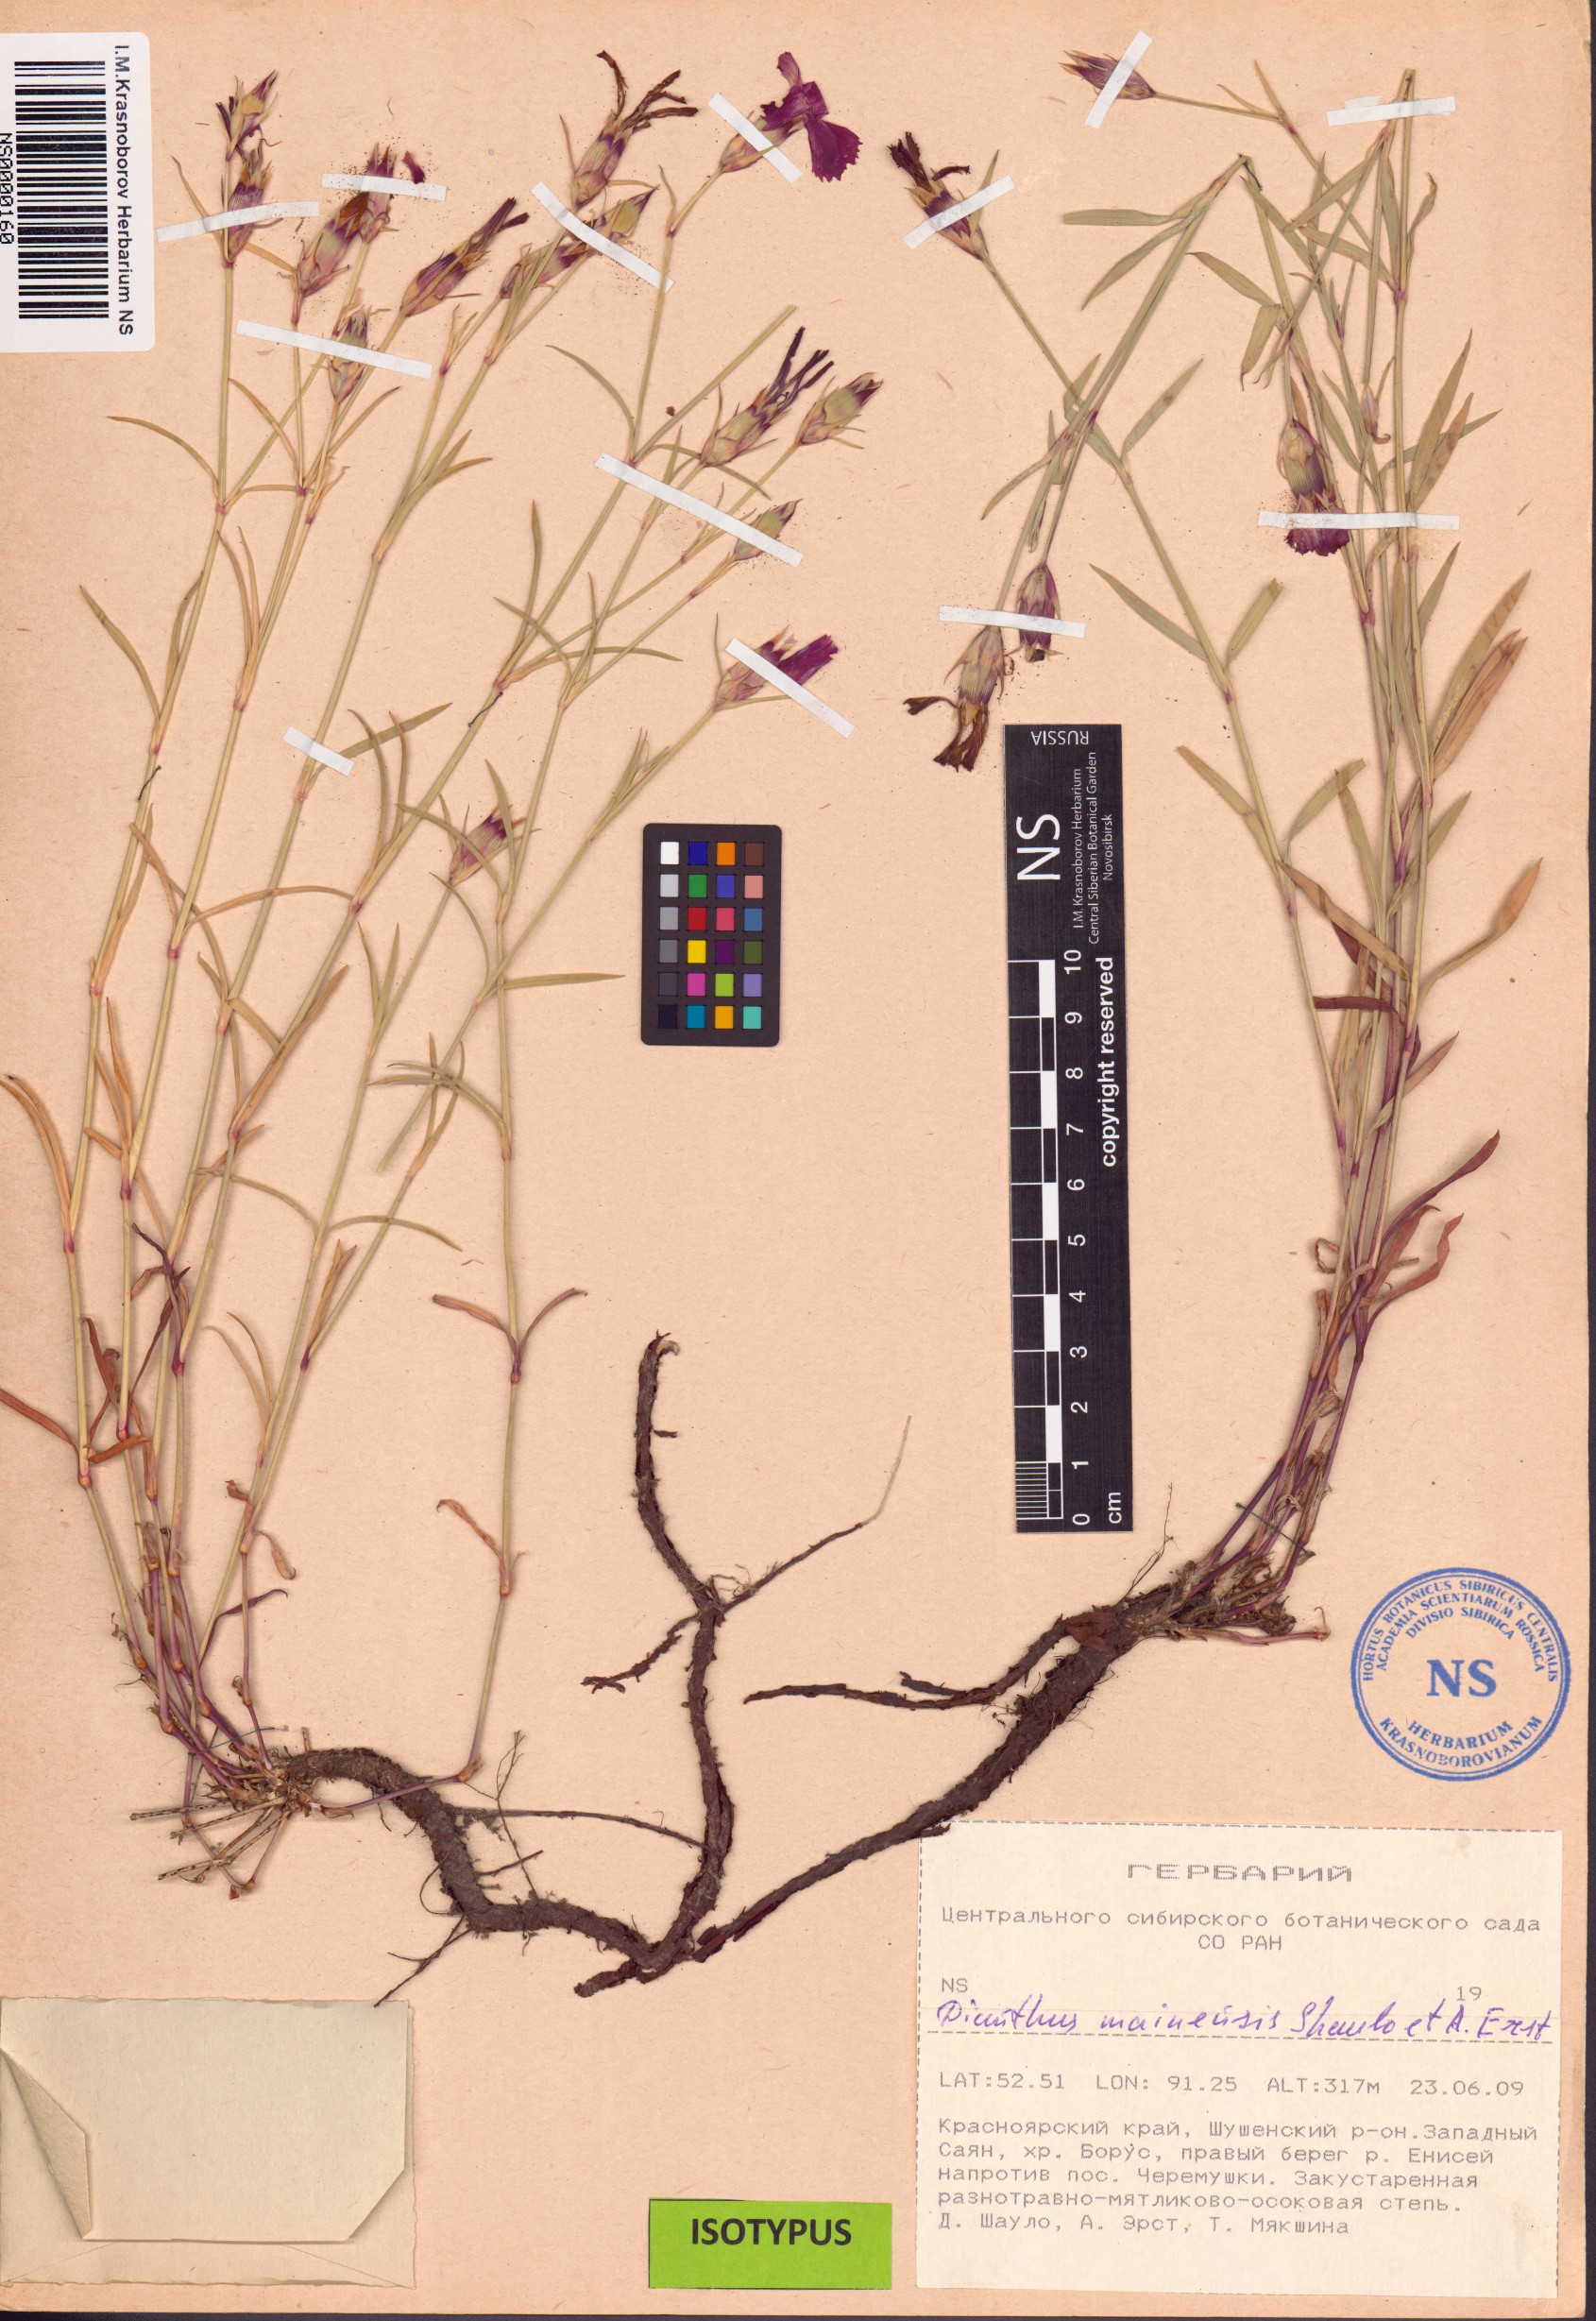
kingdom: Plantae
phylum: Tracheophyta
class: Magnoliopsida
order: Caryophyllales
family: Caryophyllaceae
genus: Dianthus
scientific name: Dianthus mainensis
